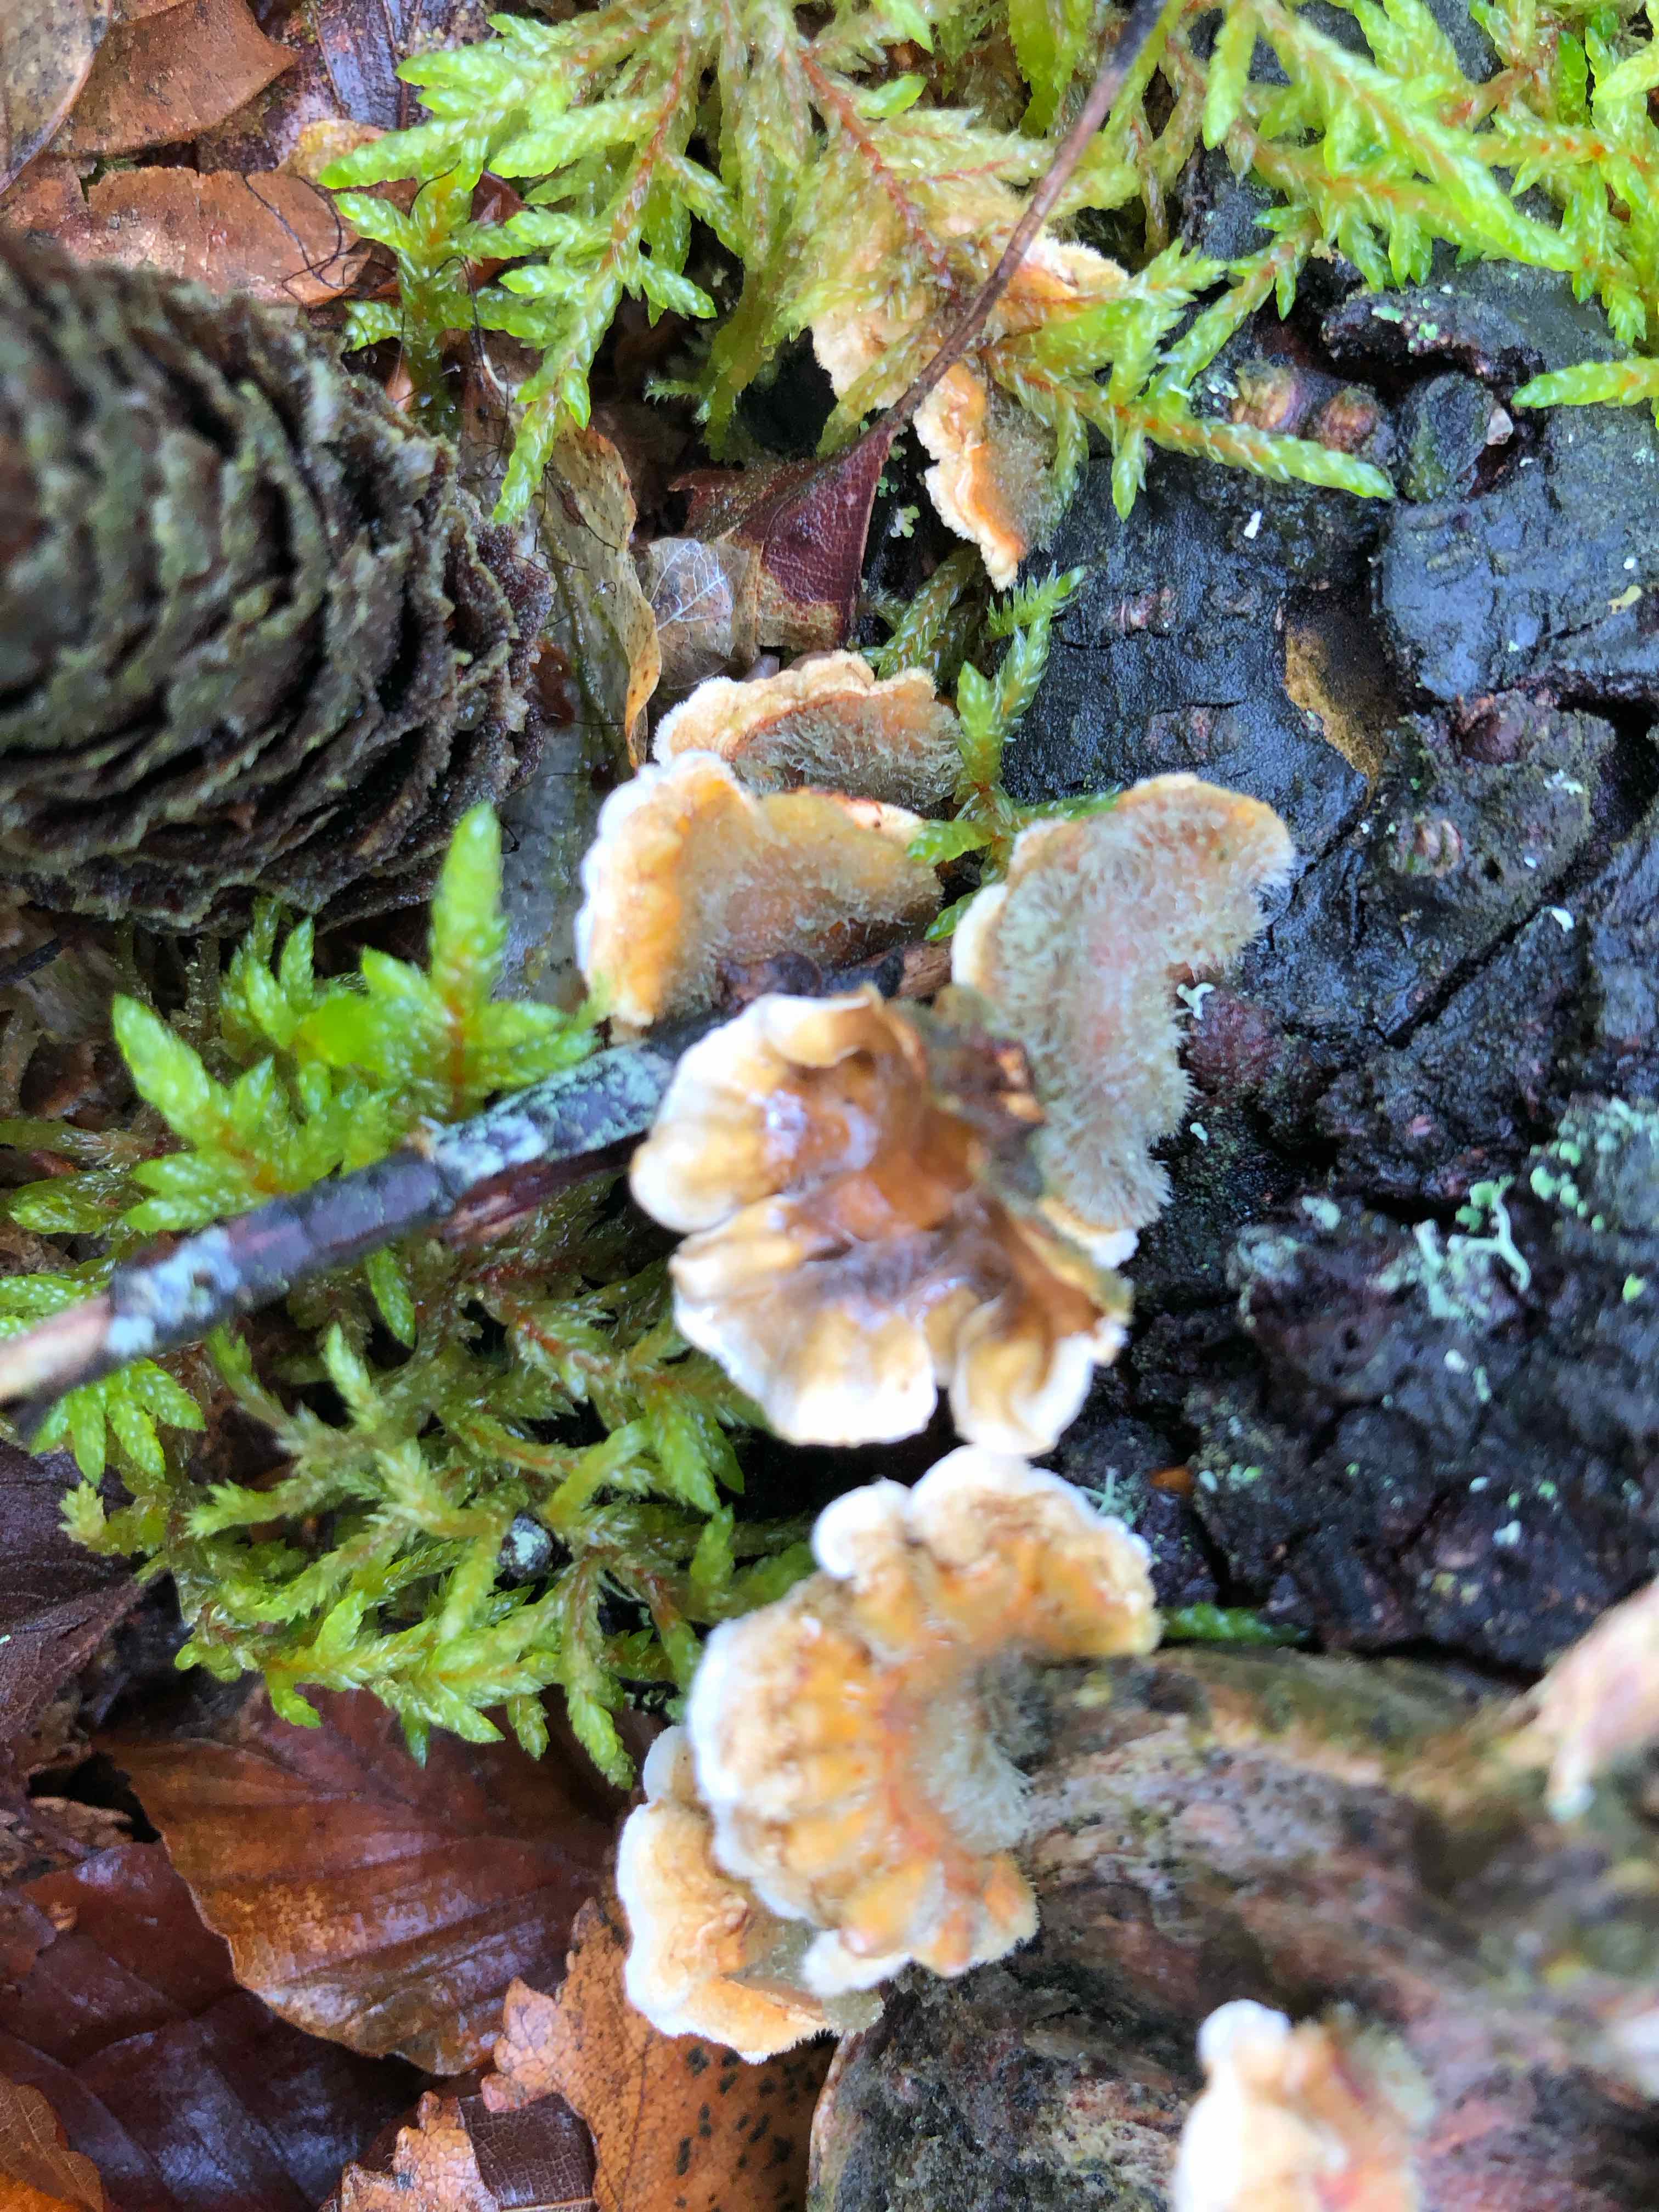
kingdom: Fungi
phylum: Basidiomycota
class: Agaricomycetes
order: Russulales
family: Stereaceae
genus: Stereum
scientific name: Stereum hirsutum
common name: håret lædersvamp
